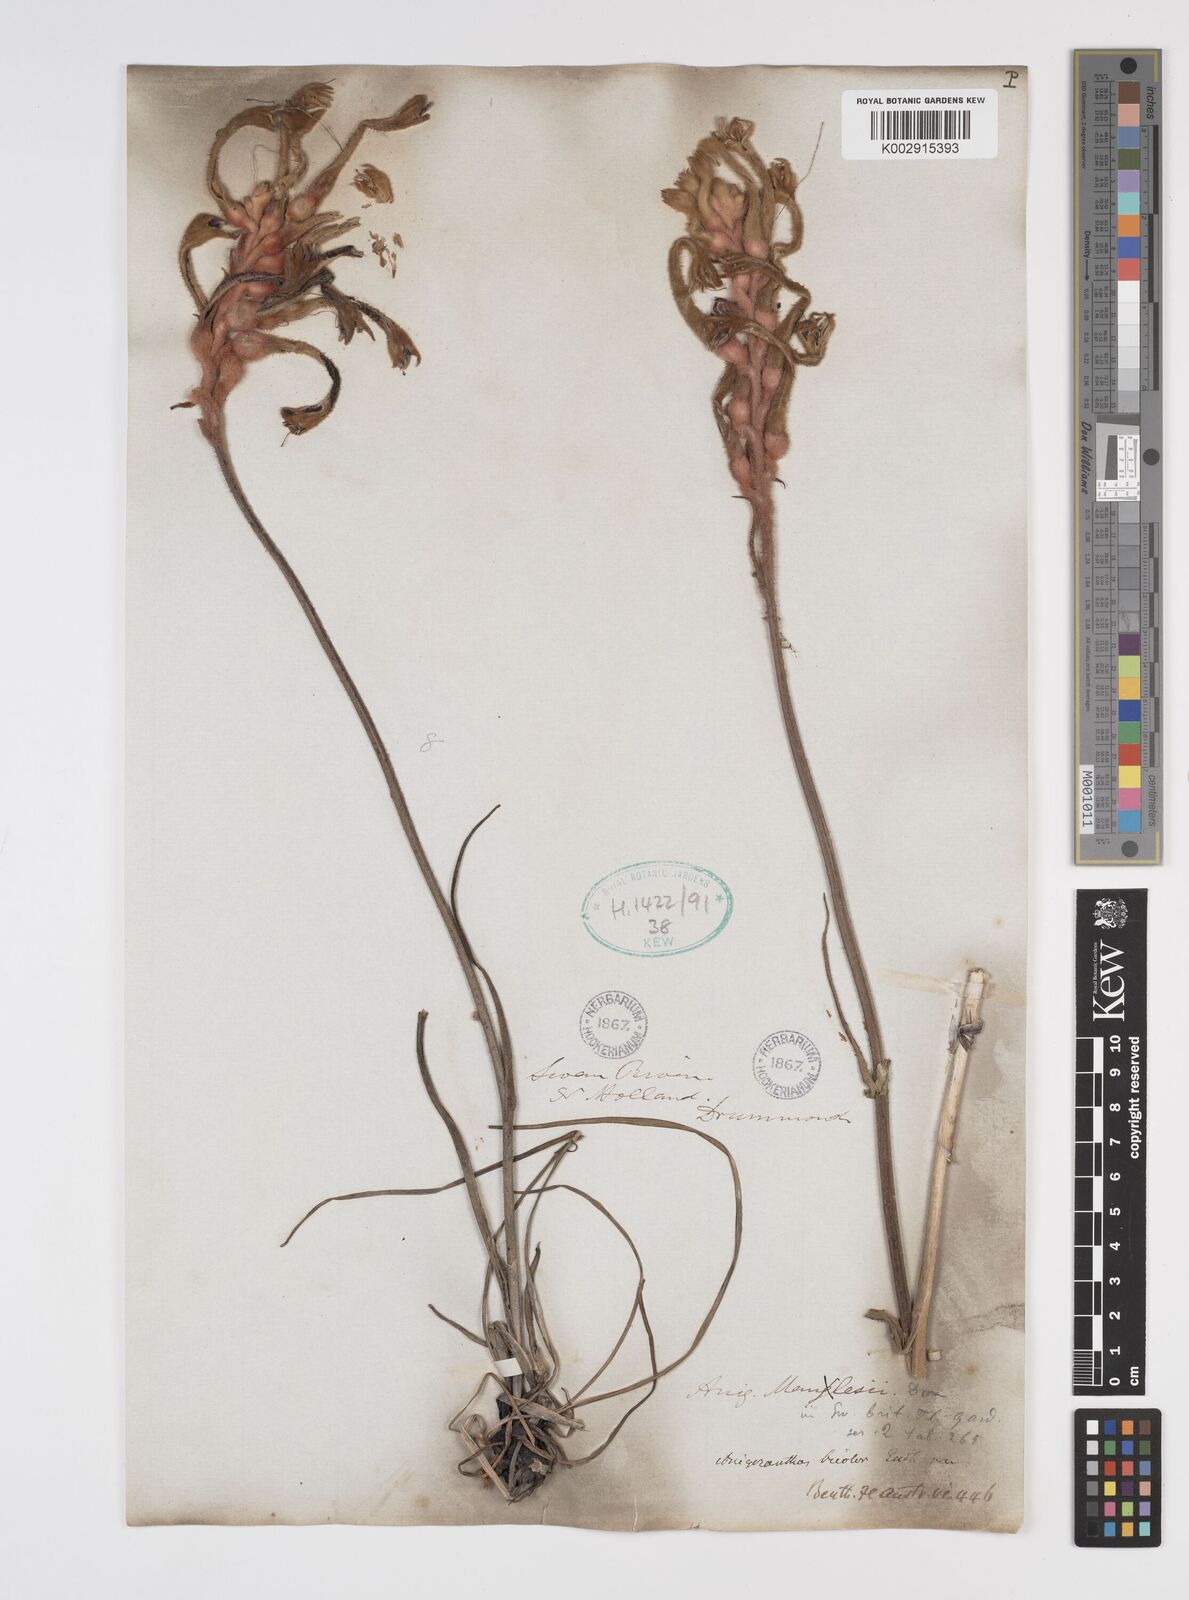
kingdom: Plantae
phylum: Tracheophyta
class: Liliopsida
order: Commelinales
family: Haemodoraceae
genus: Anigozanthos
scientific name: Anigozanthos bicolor
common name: Little kangaroo-paw
